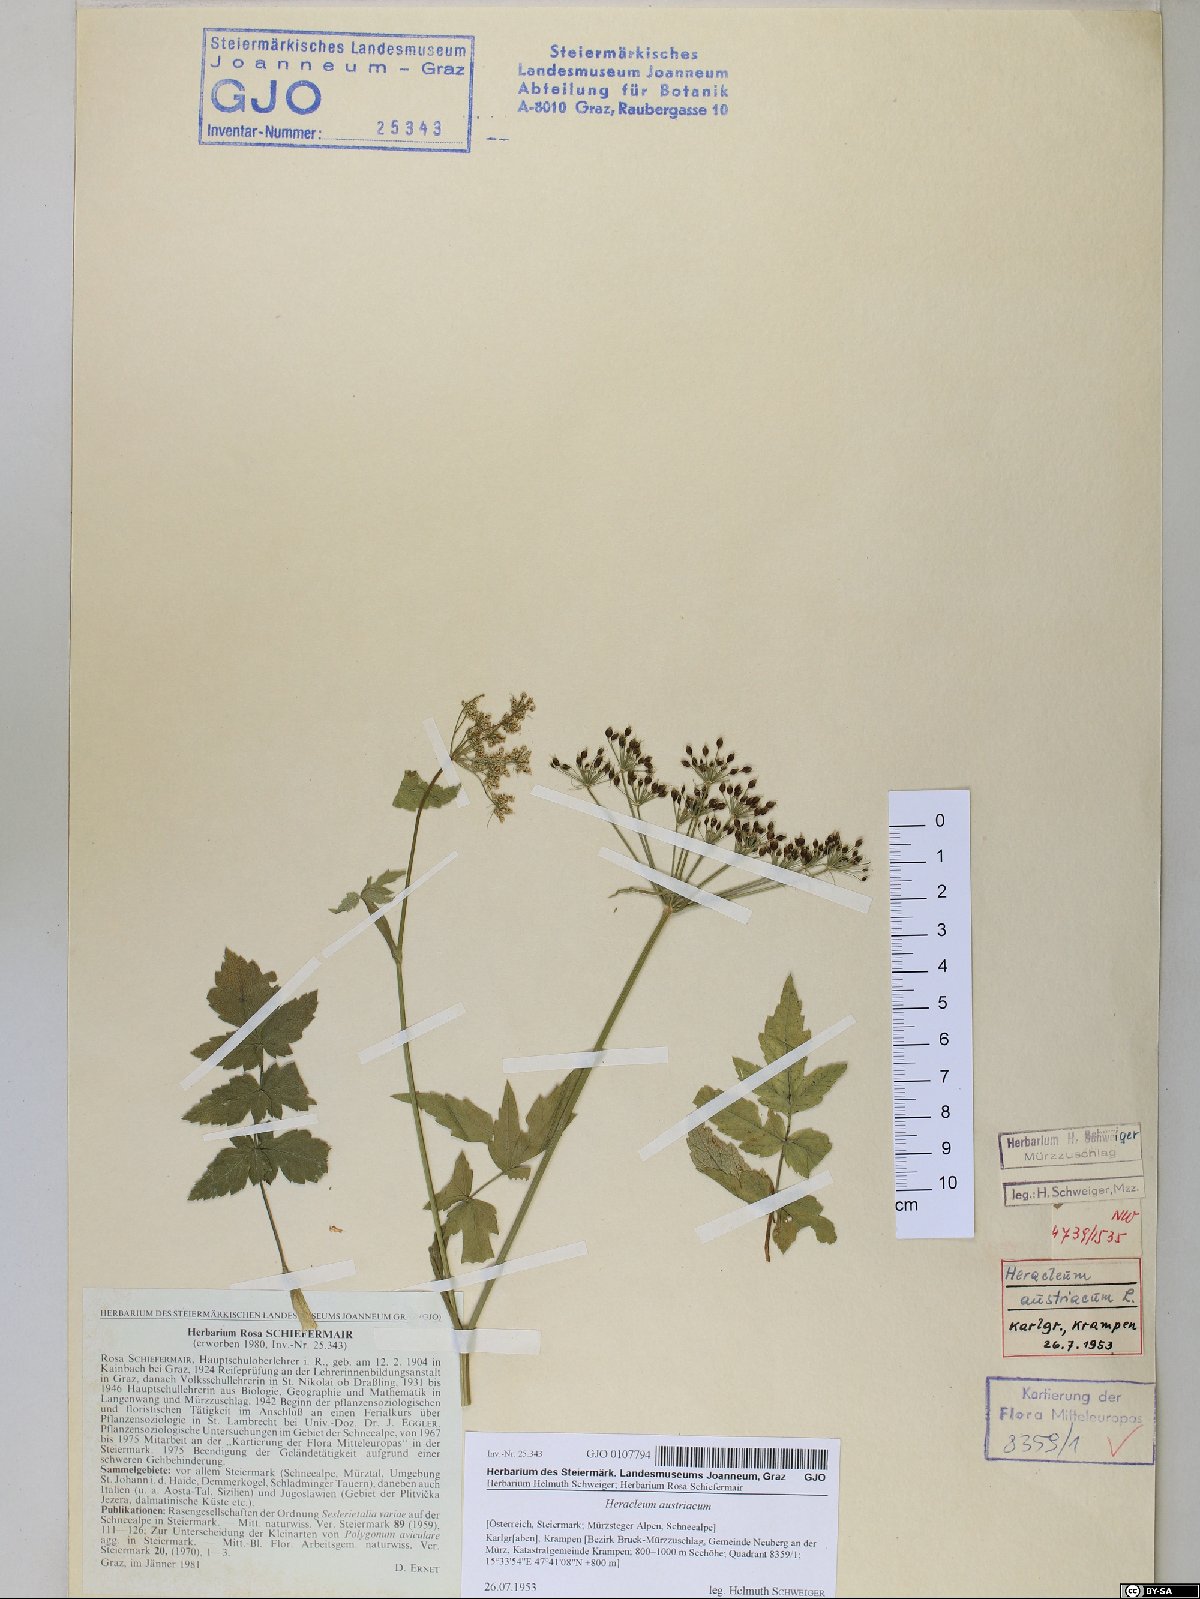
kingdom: Plantae
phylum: Tracheophyta
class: Magnoliopsida
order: Apiales
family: Apiaceae
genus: Heracleum
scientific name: Heracleum austriacum
